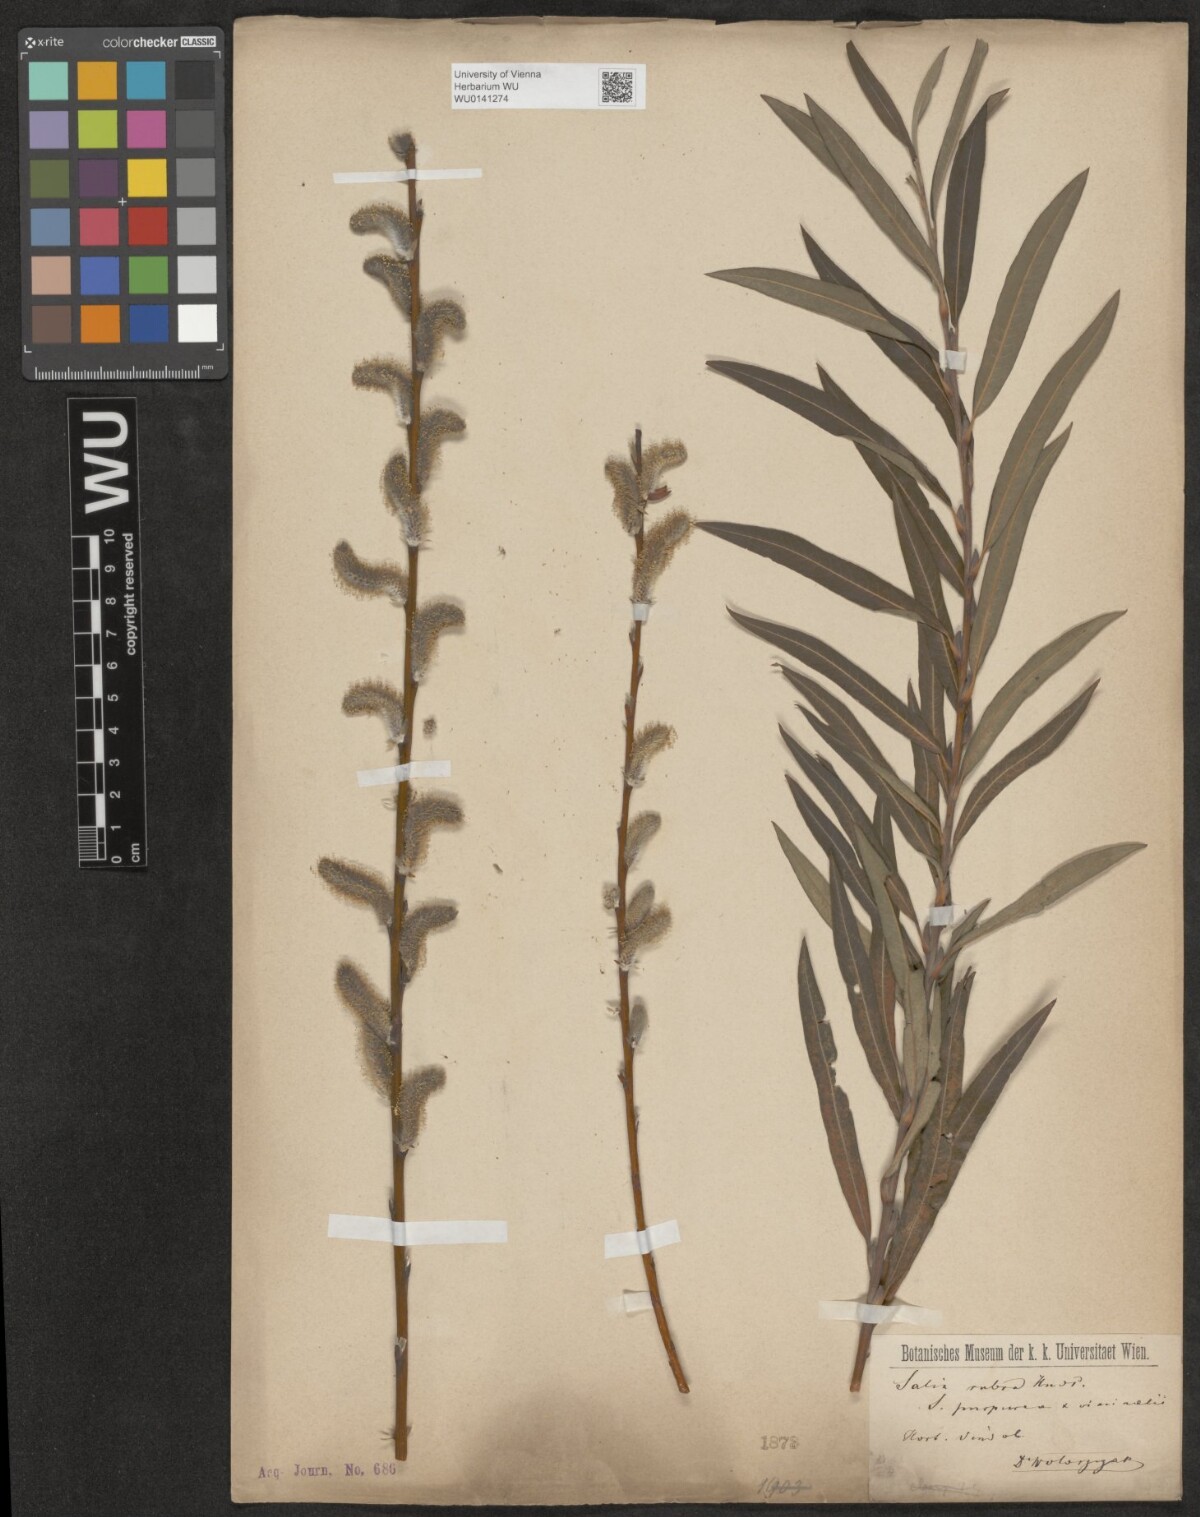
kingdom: Plantae
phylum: Tracheophyta
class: Magnoliopsida
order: Malpighiales
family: Salicaceae
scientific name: Salicaceae
